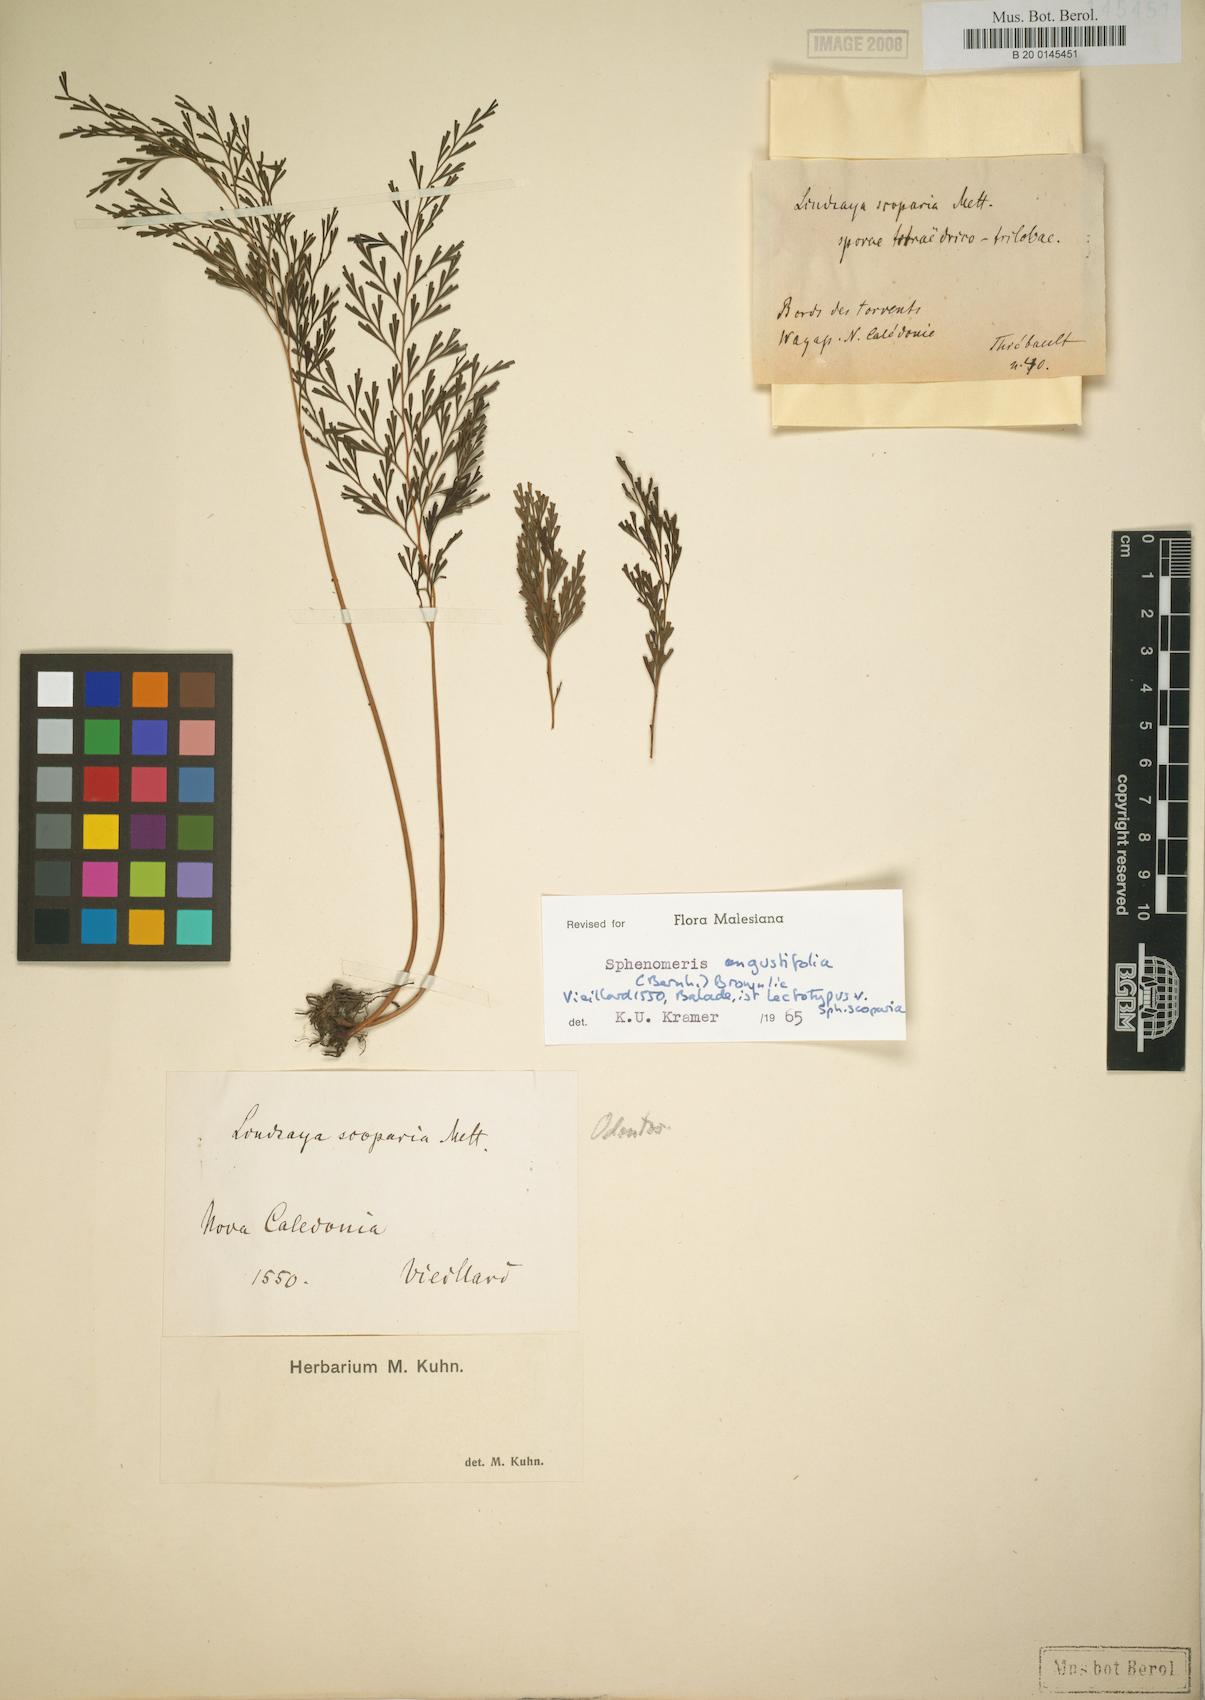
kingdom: Plantae
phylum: Tracheophyta
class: Polypodiopsida
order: Polypodiales
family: Lindsaeaceae
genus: Odontosoria
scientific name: Odontosoria angustifolia
